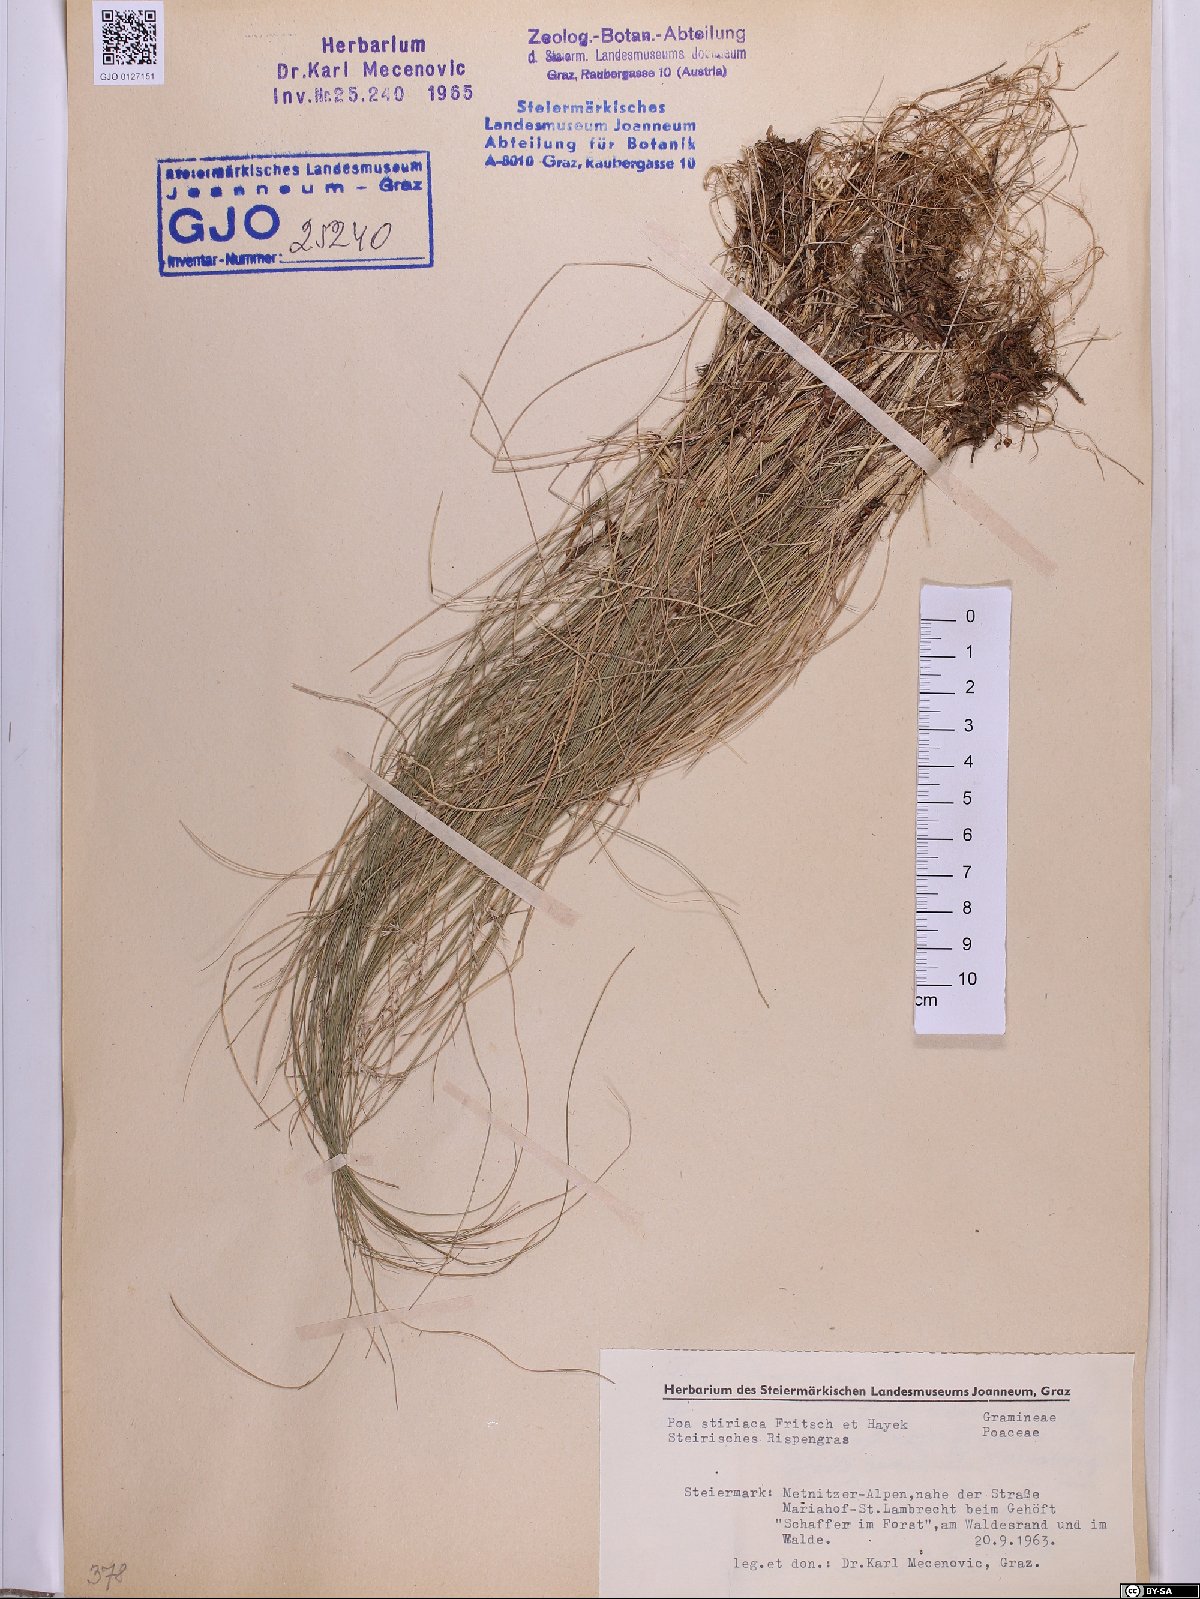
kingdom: Plantae
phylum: Tracheophyta
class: Liliopsida
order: Poales
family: Poaceae
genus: Poa
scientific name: Poa stiriaca
